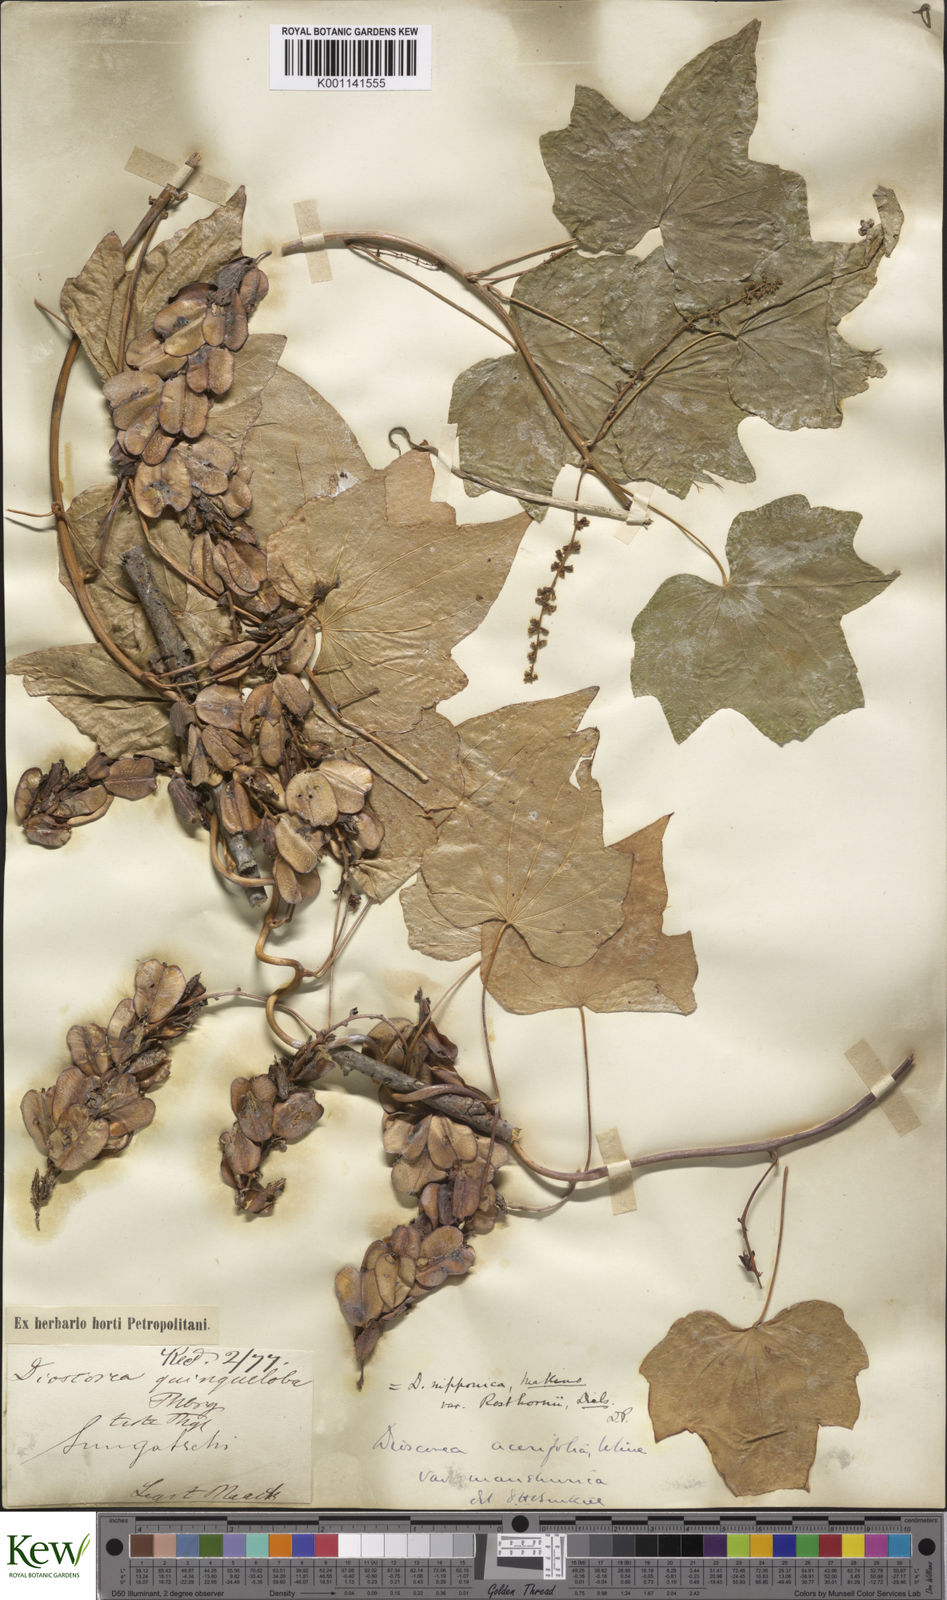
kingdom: Plantae
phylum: Tracheophyta
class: Liliopsida
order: Dioscoreales
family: Dioscoreaceae
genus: Dioscorea
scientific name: Dioscorea nipponica
